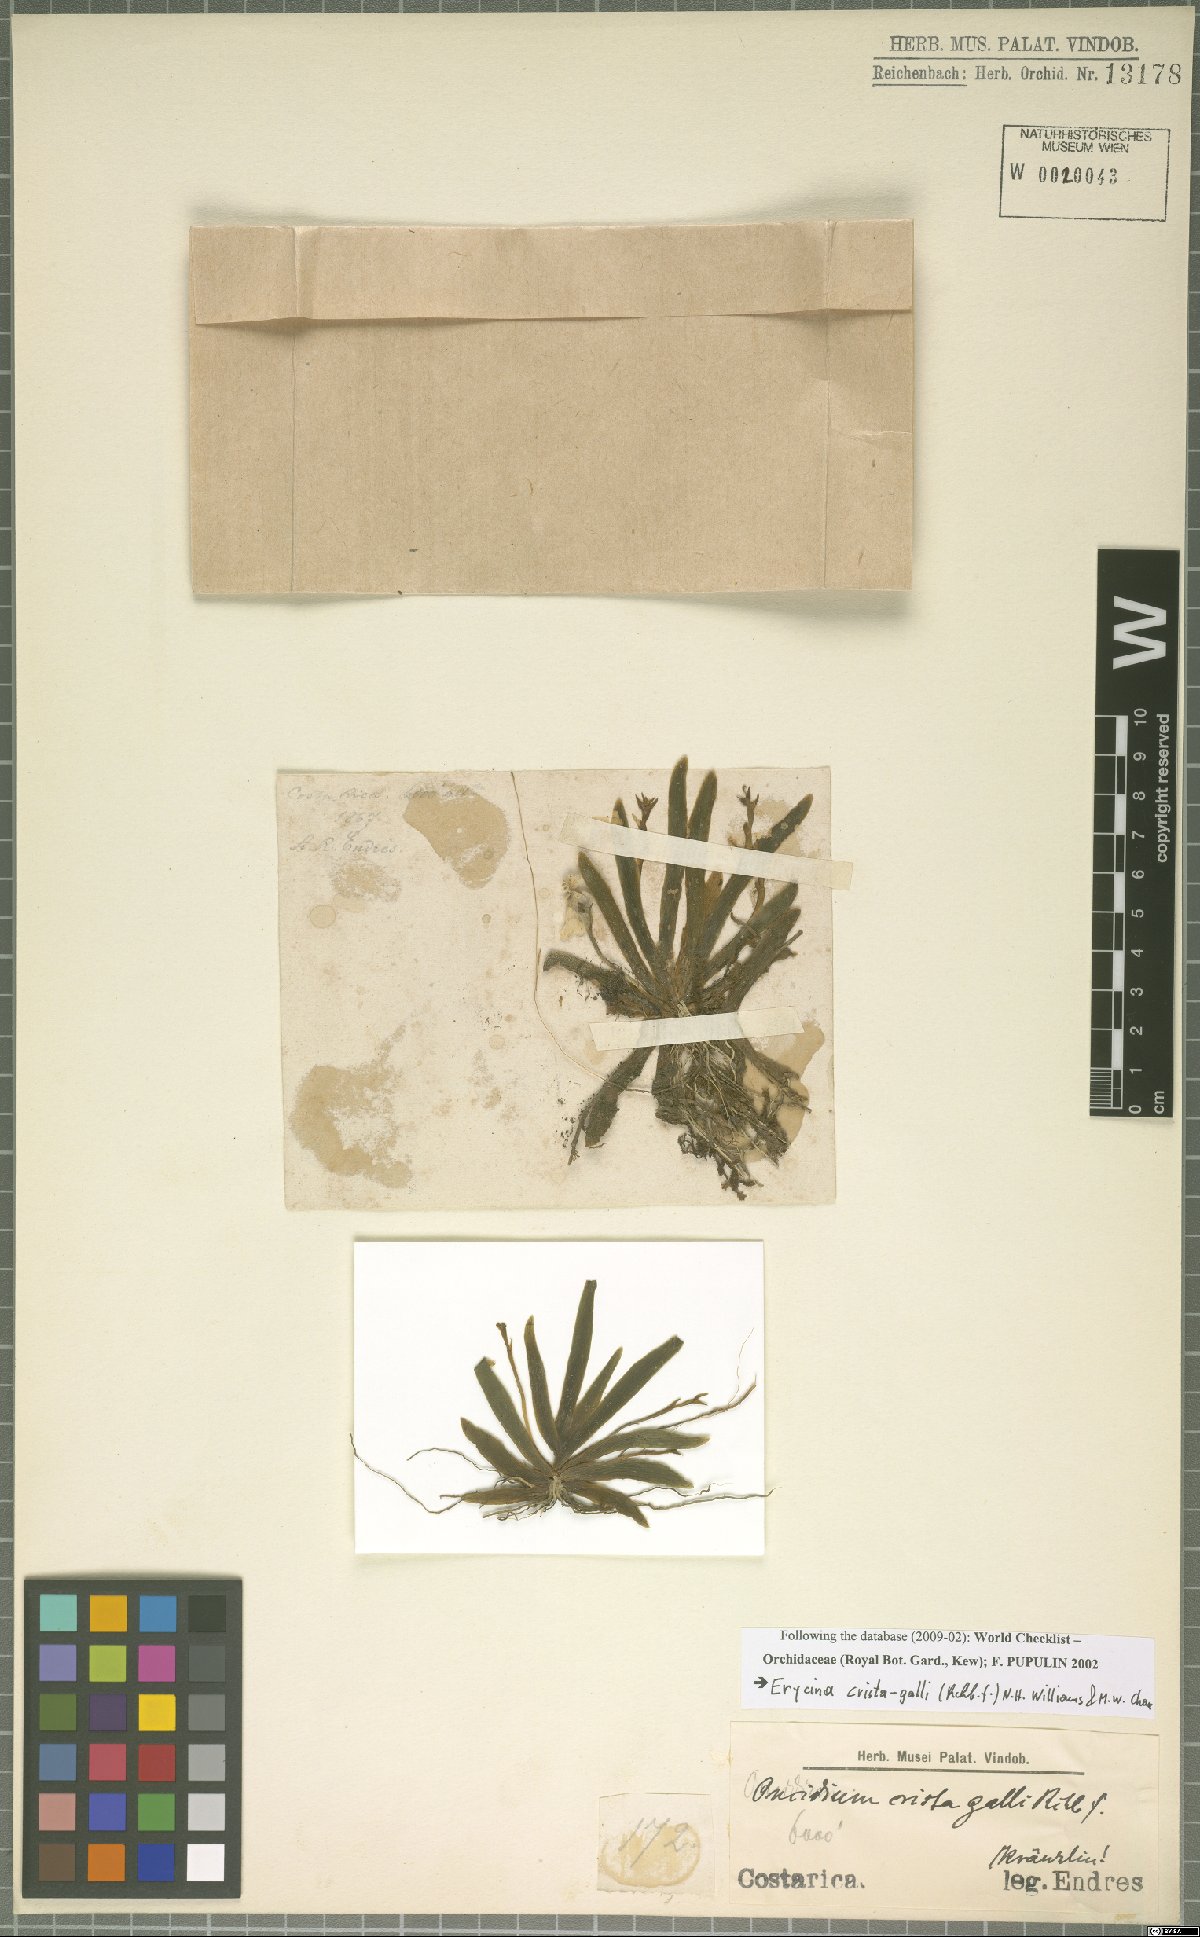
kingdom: Plantae
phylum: Tracheophyta
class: Liliopsida
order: Asparagales
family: Orchidaceae
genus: Erycina
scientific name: Erycina crista-galli
